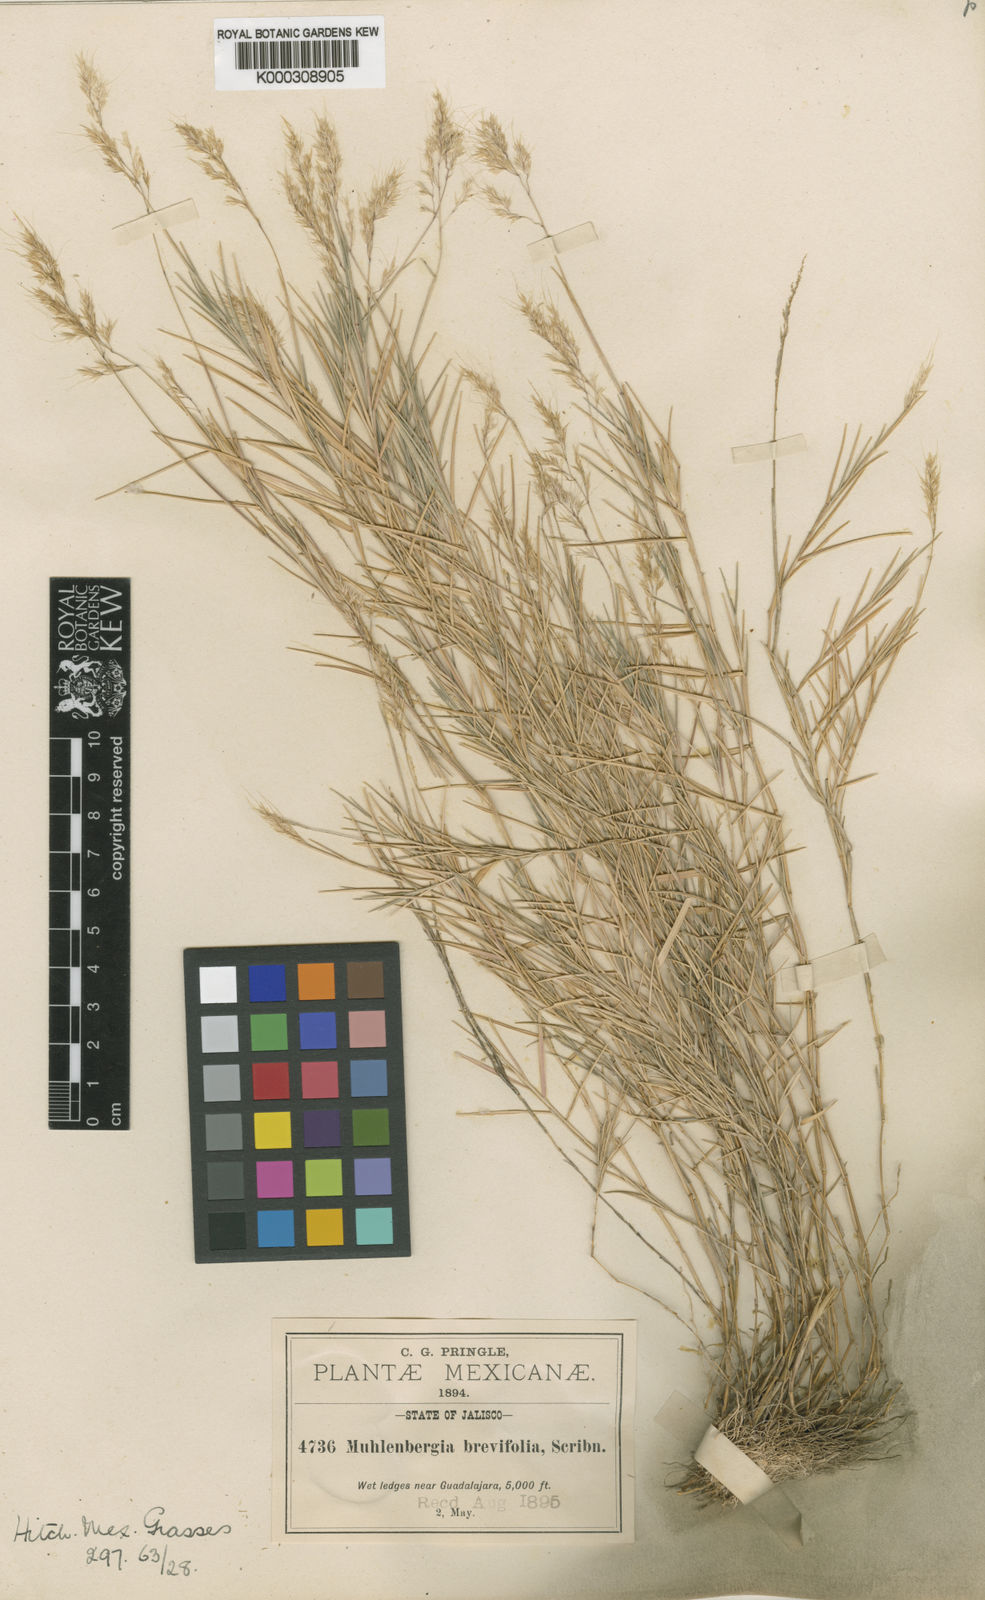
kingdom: Plantae
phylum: Tracheophyta
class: Liliopsida
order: Poales
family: Poaceae
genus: Muhlenbergia
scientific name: Muhlenbergia brevifolia
